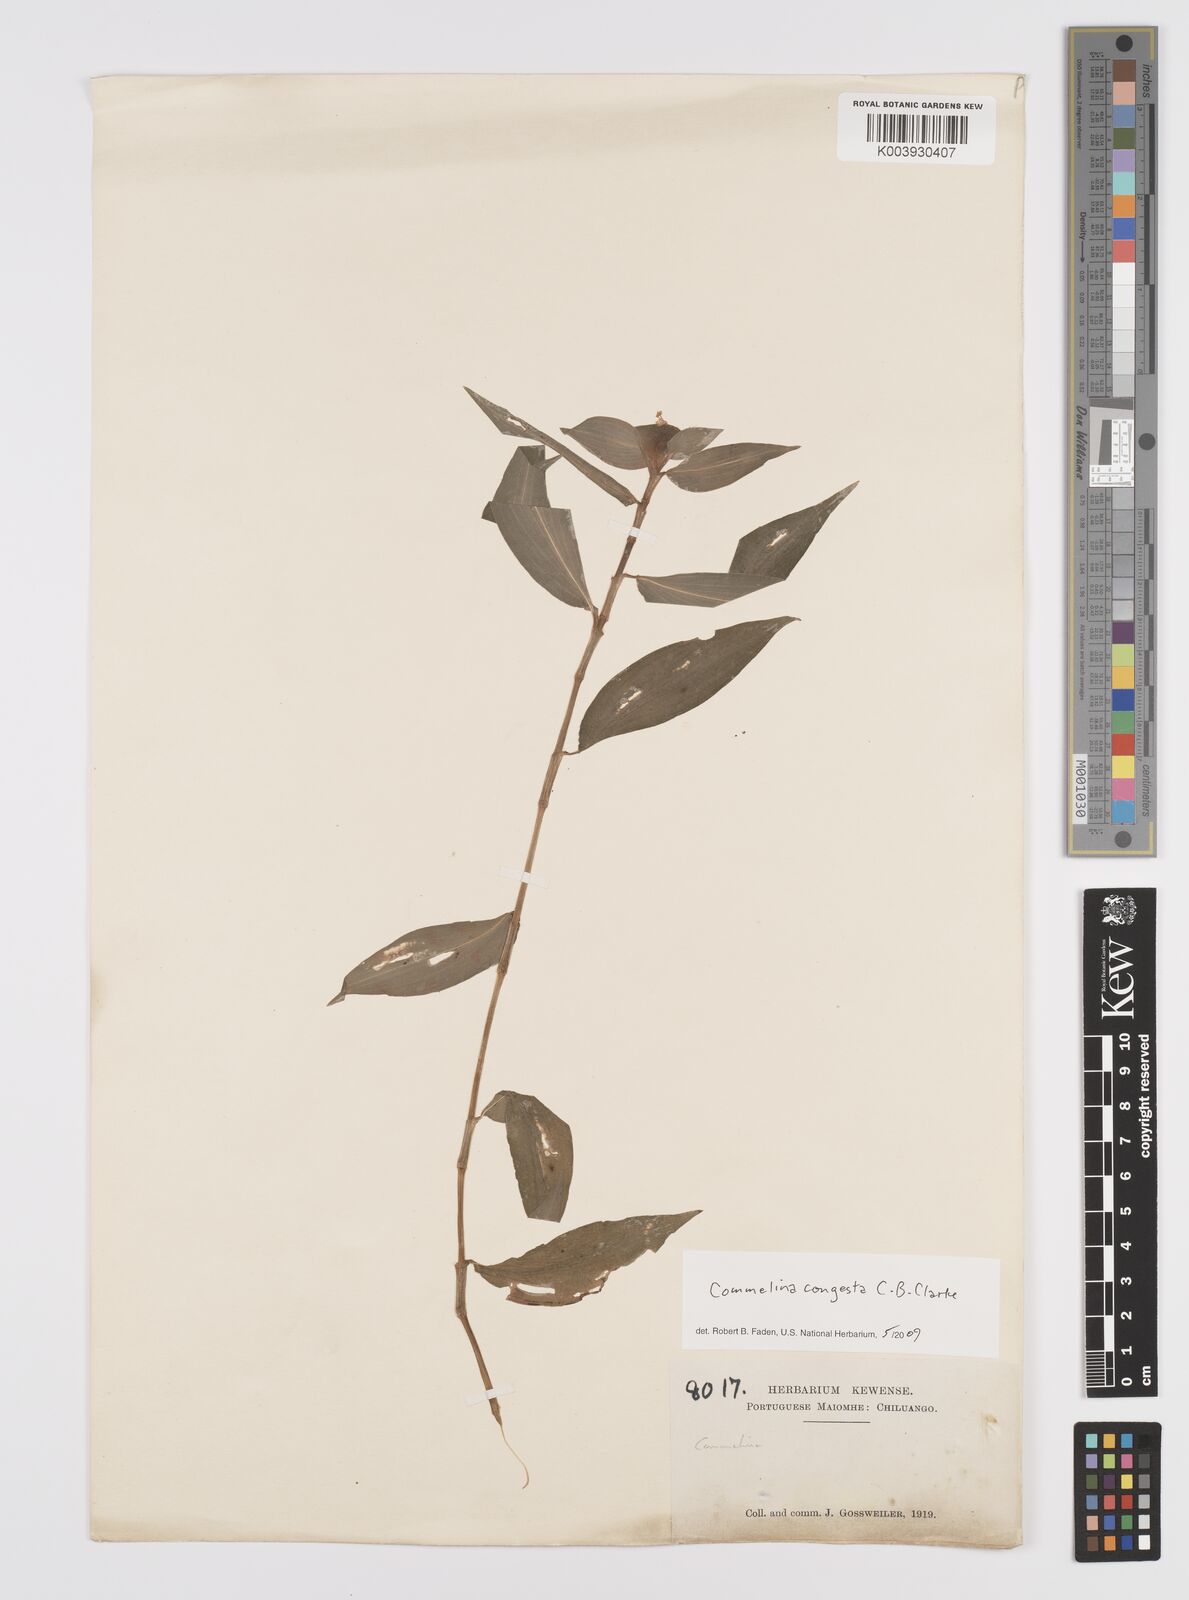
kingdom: Plantae
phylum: Tracheophyta
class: Liliopsida
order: Commelinales
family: Commelinaceae
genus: Commelina
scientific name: Commelina congesta
